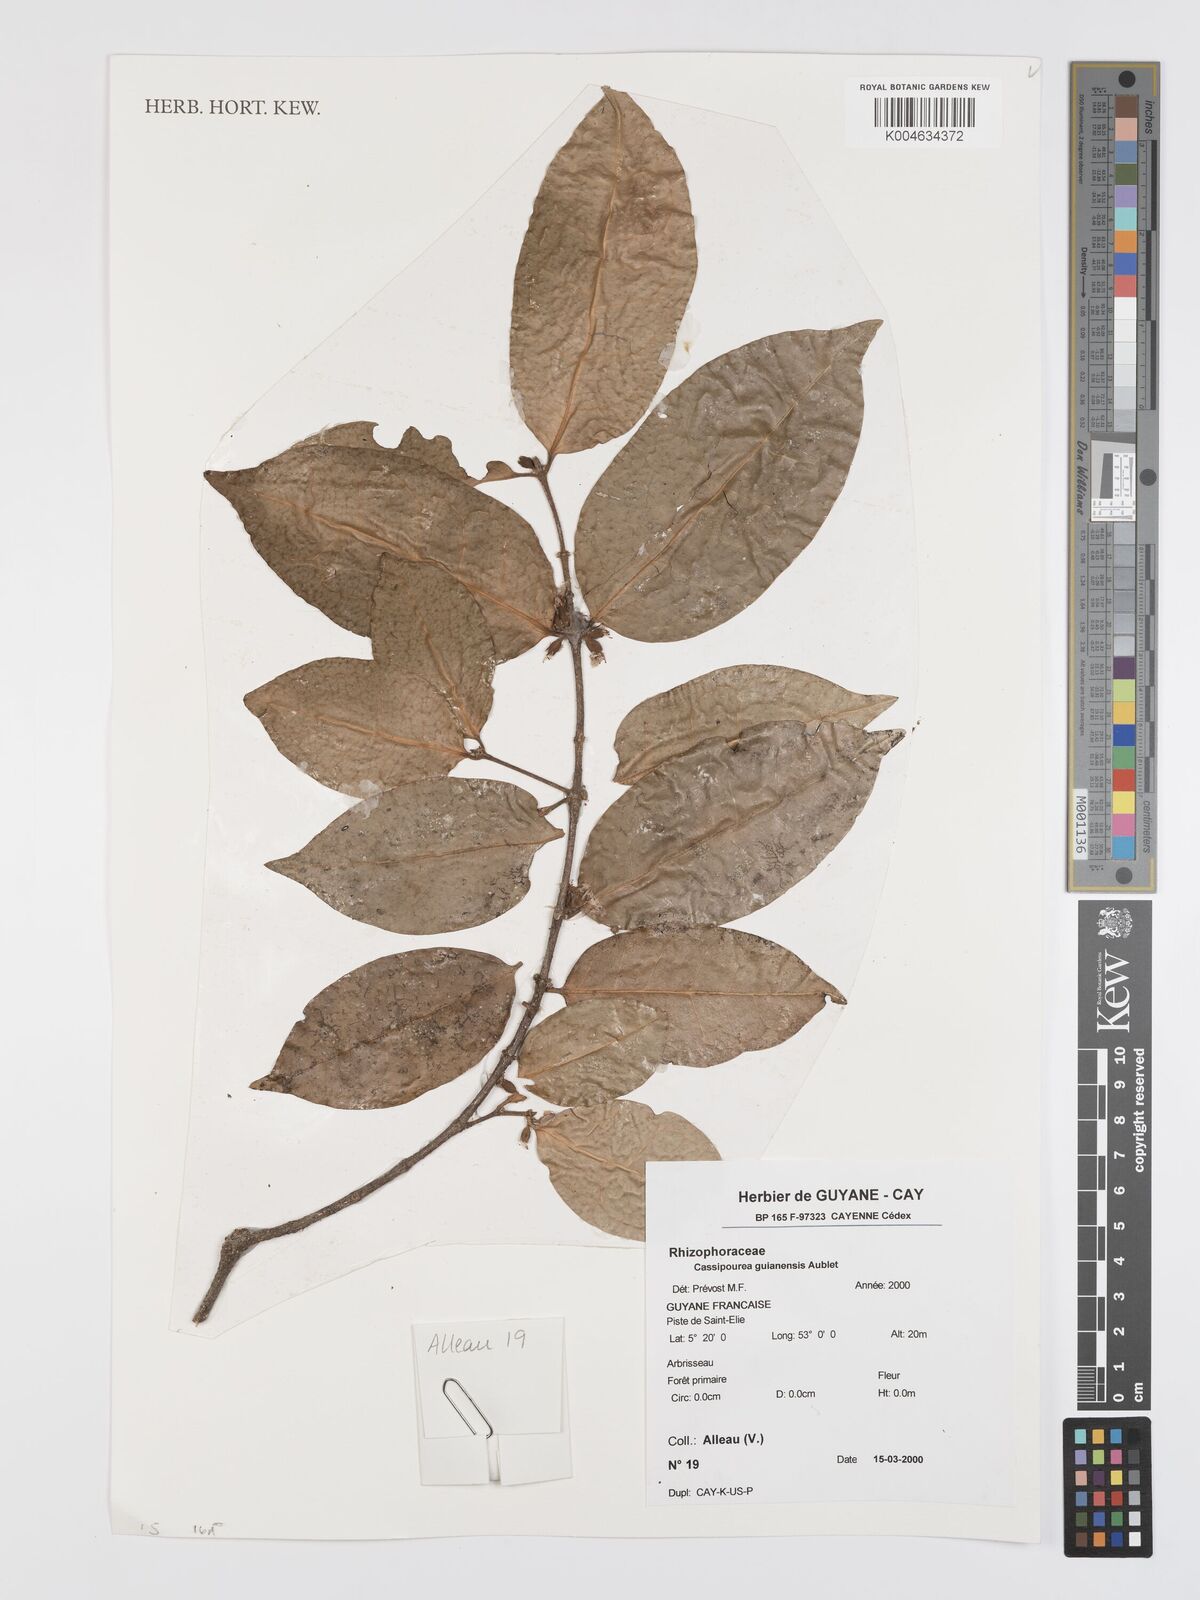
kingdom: Plantae
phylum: Tracheophyta
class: Magnoliopsida
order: Malpighiales
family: Rhizophoraceae
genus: Cassipourea
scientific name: Cassipourea guianensis
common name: Bastard waterwood
